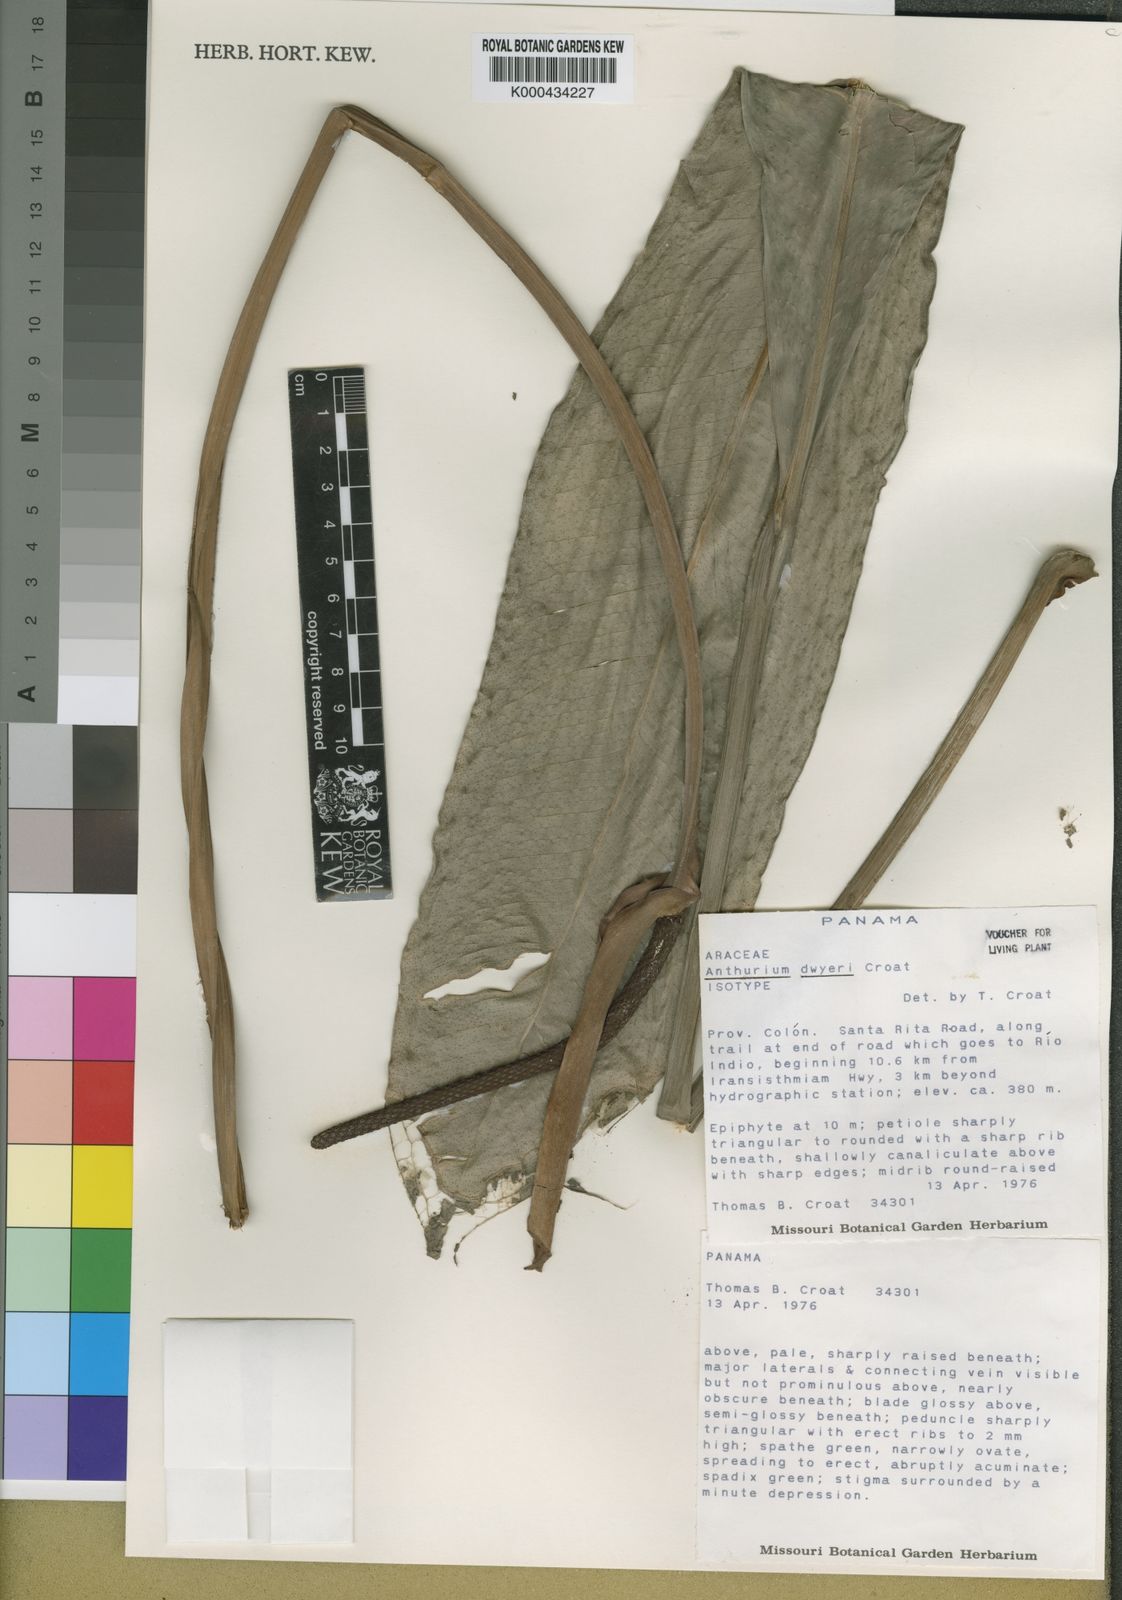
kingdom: Plantae
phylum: Tracheophyta
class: Liliopsida
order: Alismatales
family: Araceae
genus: Anthurium
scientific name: Anthurium dwyeri
